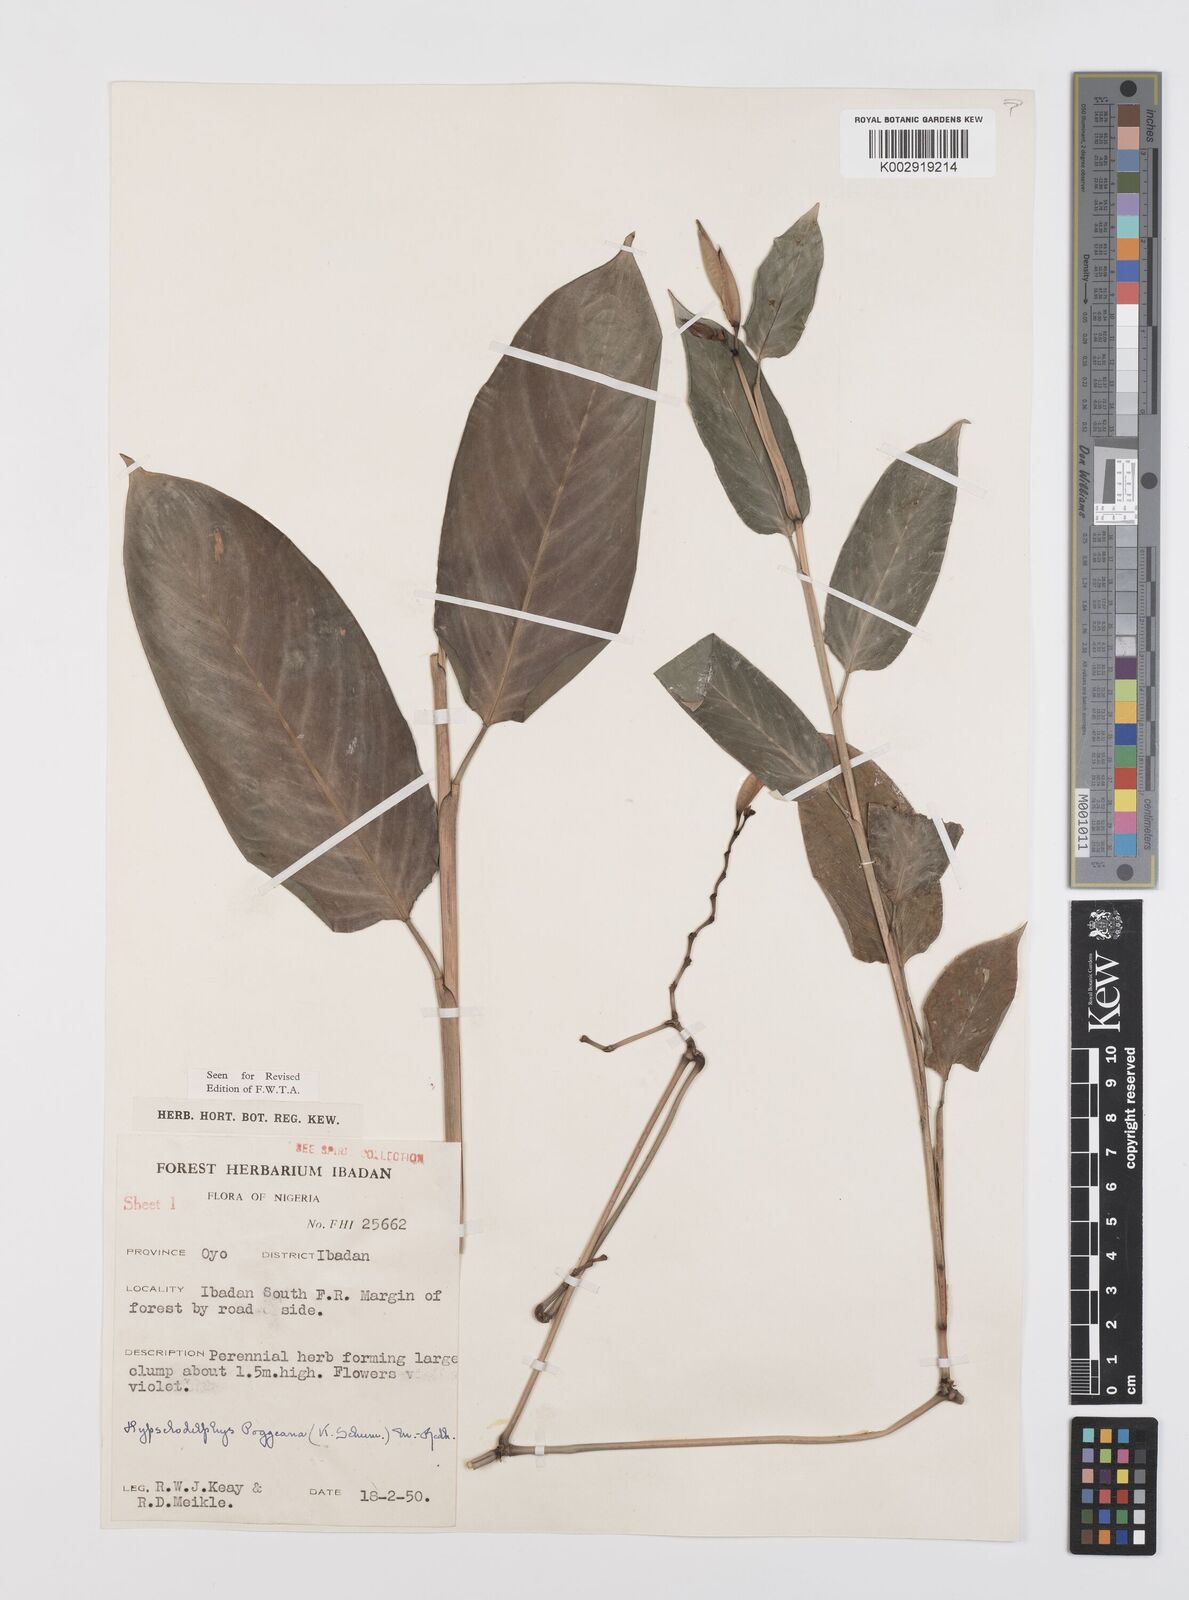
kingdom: Plantae
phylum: Tracheophyta
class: Liliopsida
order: Zingiberales
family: Marantaceae
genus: Hypselodelphys
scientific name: Hypselodelphys poggeana
